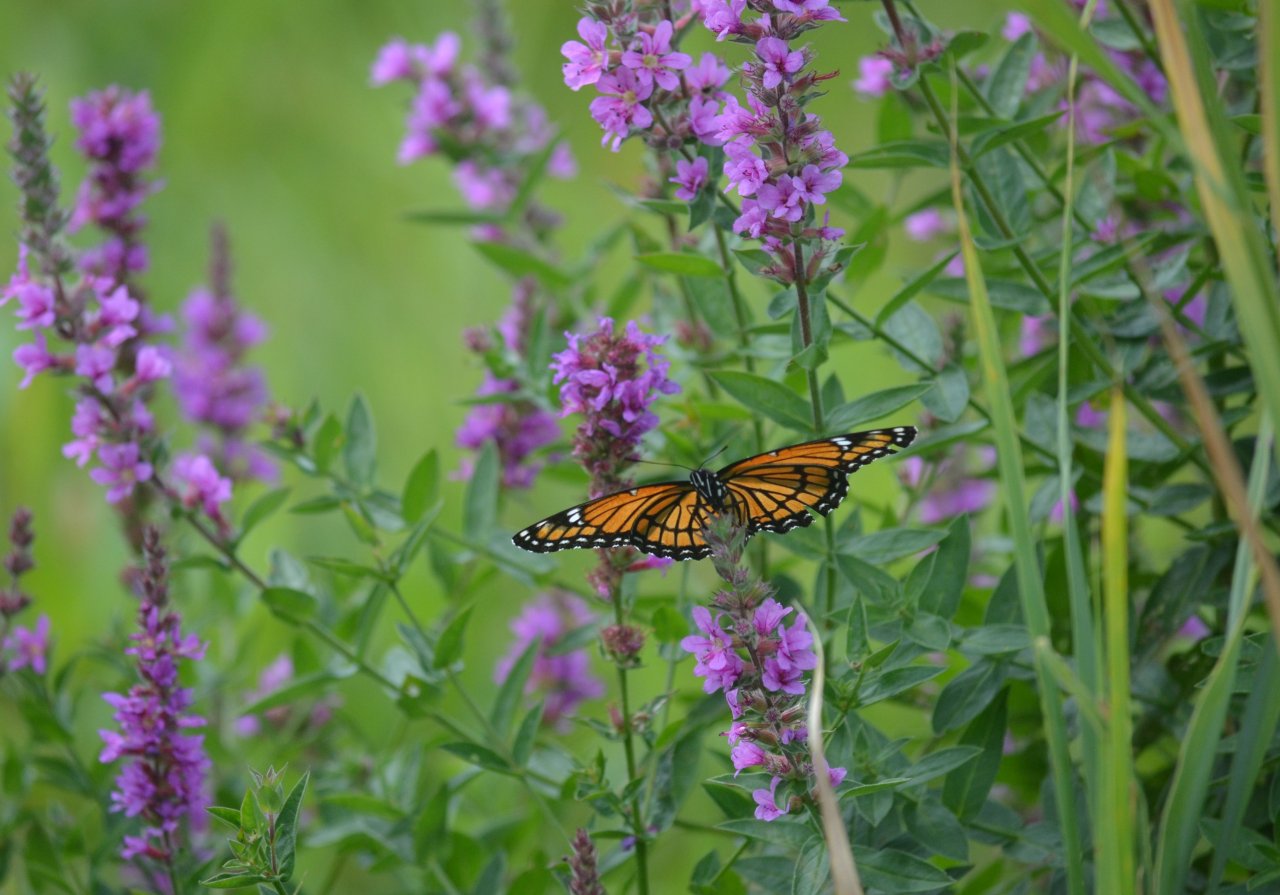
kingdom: Animalia
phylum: Arthropoda
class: Insecta
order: Lepidoptera
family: Nymphalidae
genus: Limenitis
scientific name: Limenitis archippus
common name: Viceroy
